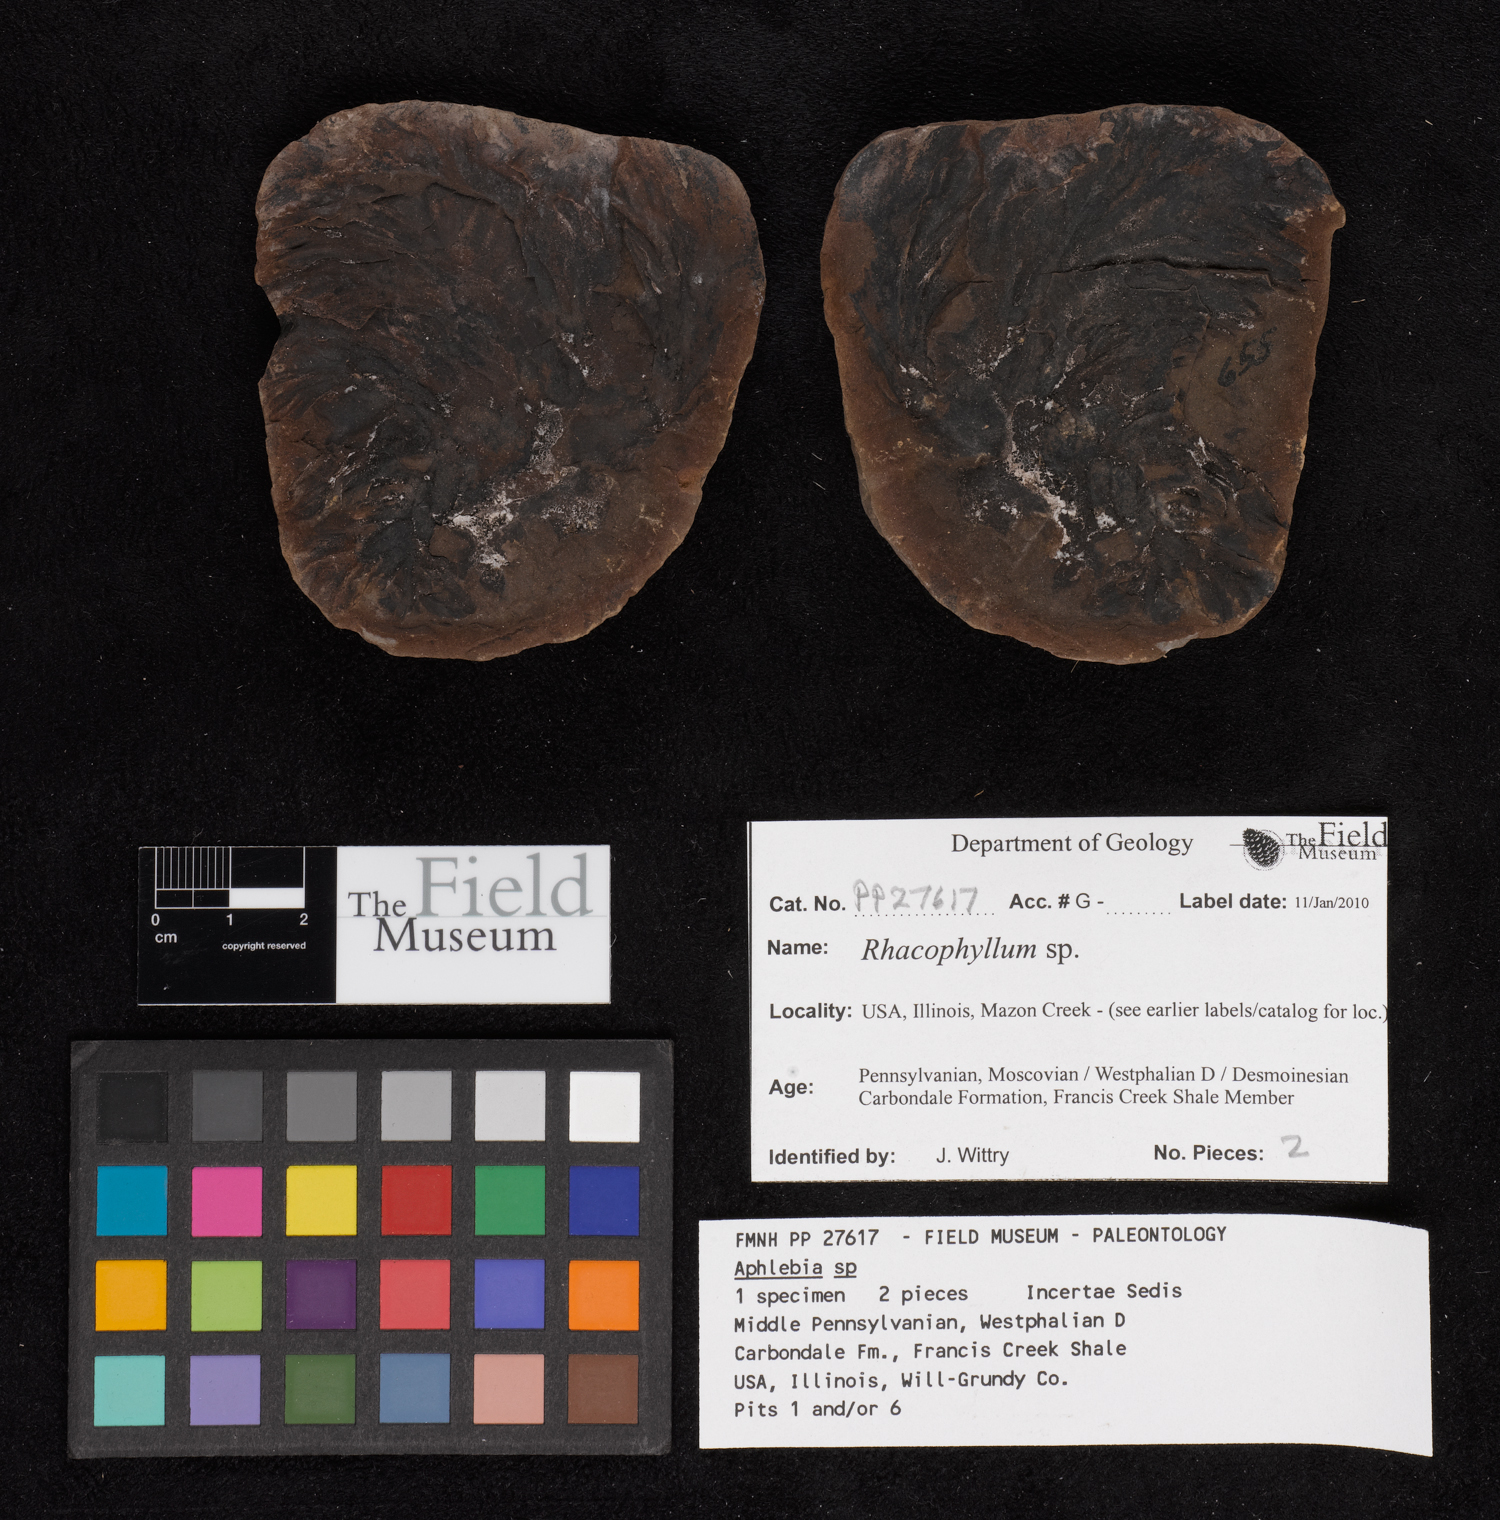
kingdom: Plantae
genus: Rhacophyllum
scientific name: Rhacophyllum
